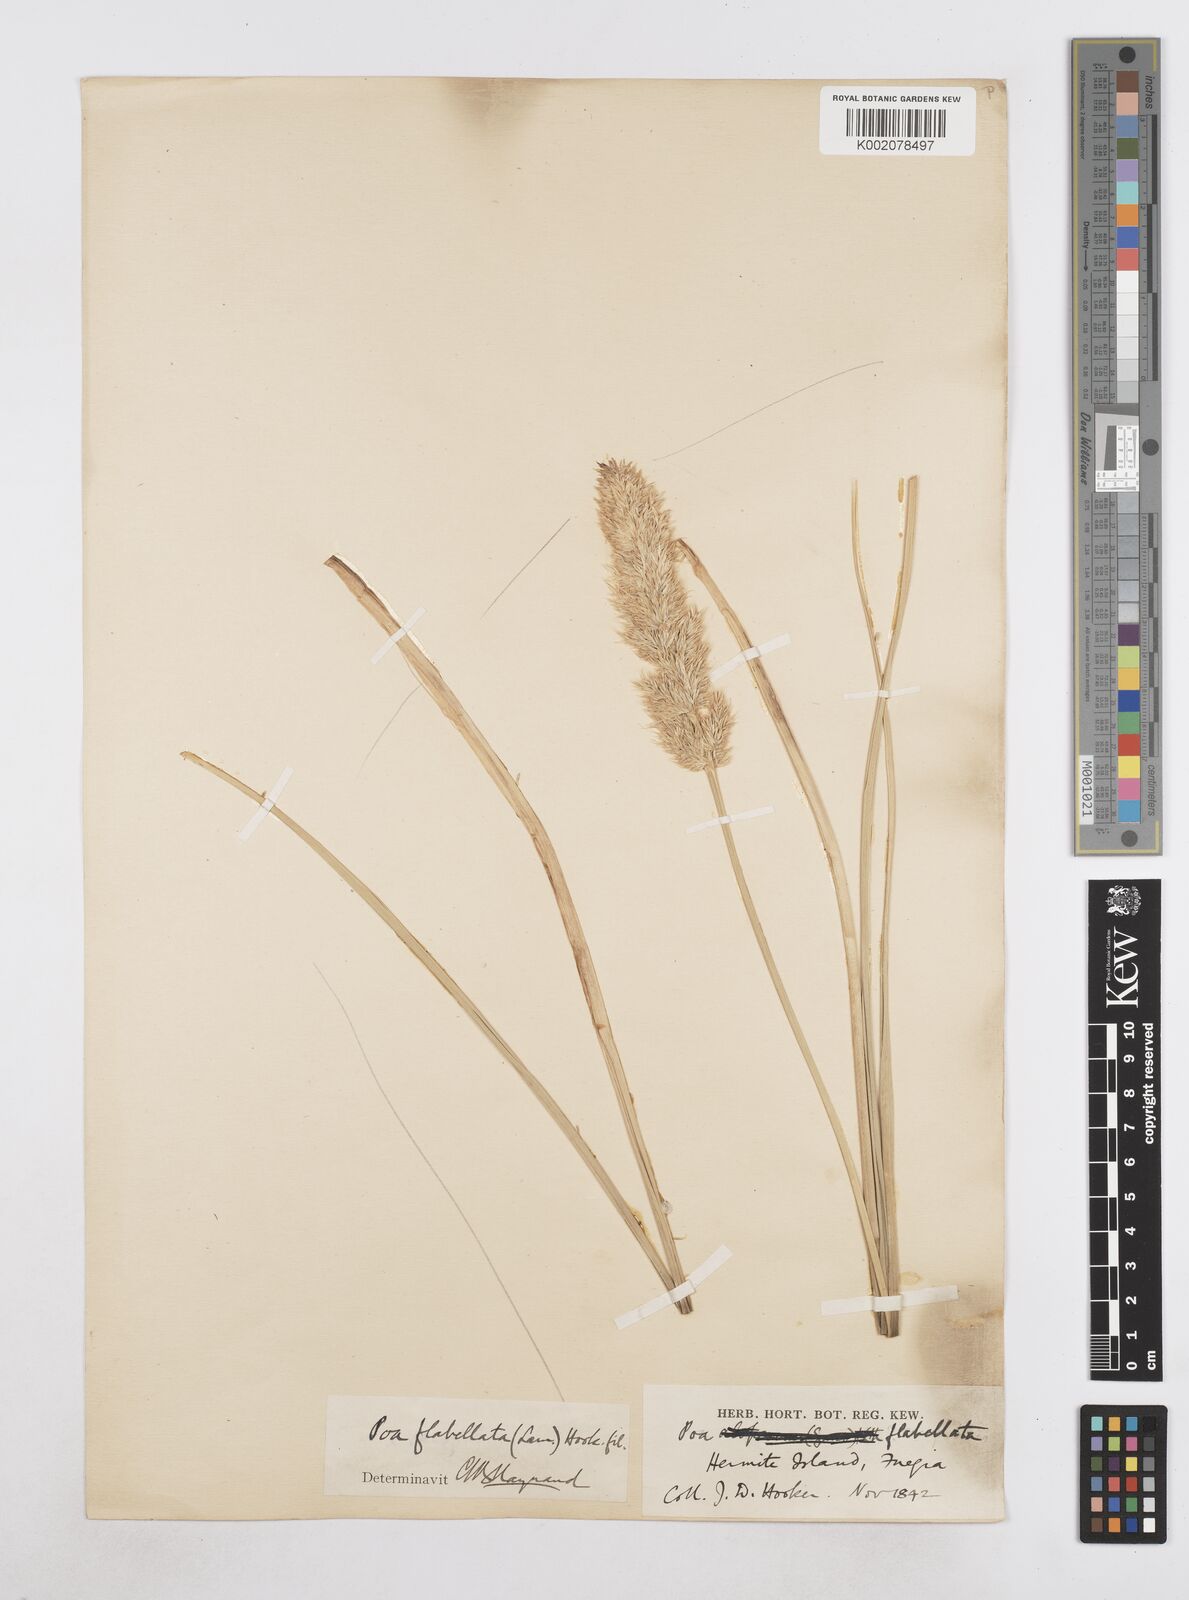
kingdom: Plantae
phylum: Tracheophyta
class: Liliopsida
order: Poales
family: Poaceae
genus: Poa
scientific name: Poa flabellata
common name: Tussac-grass
